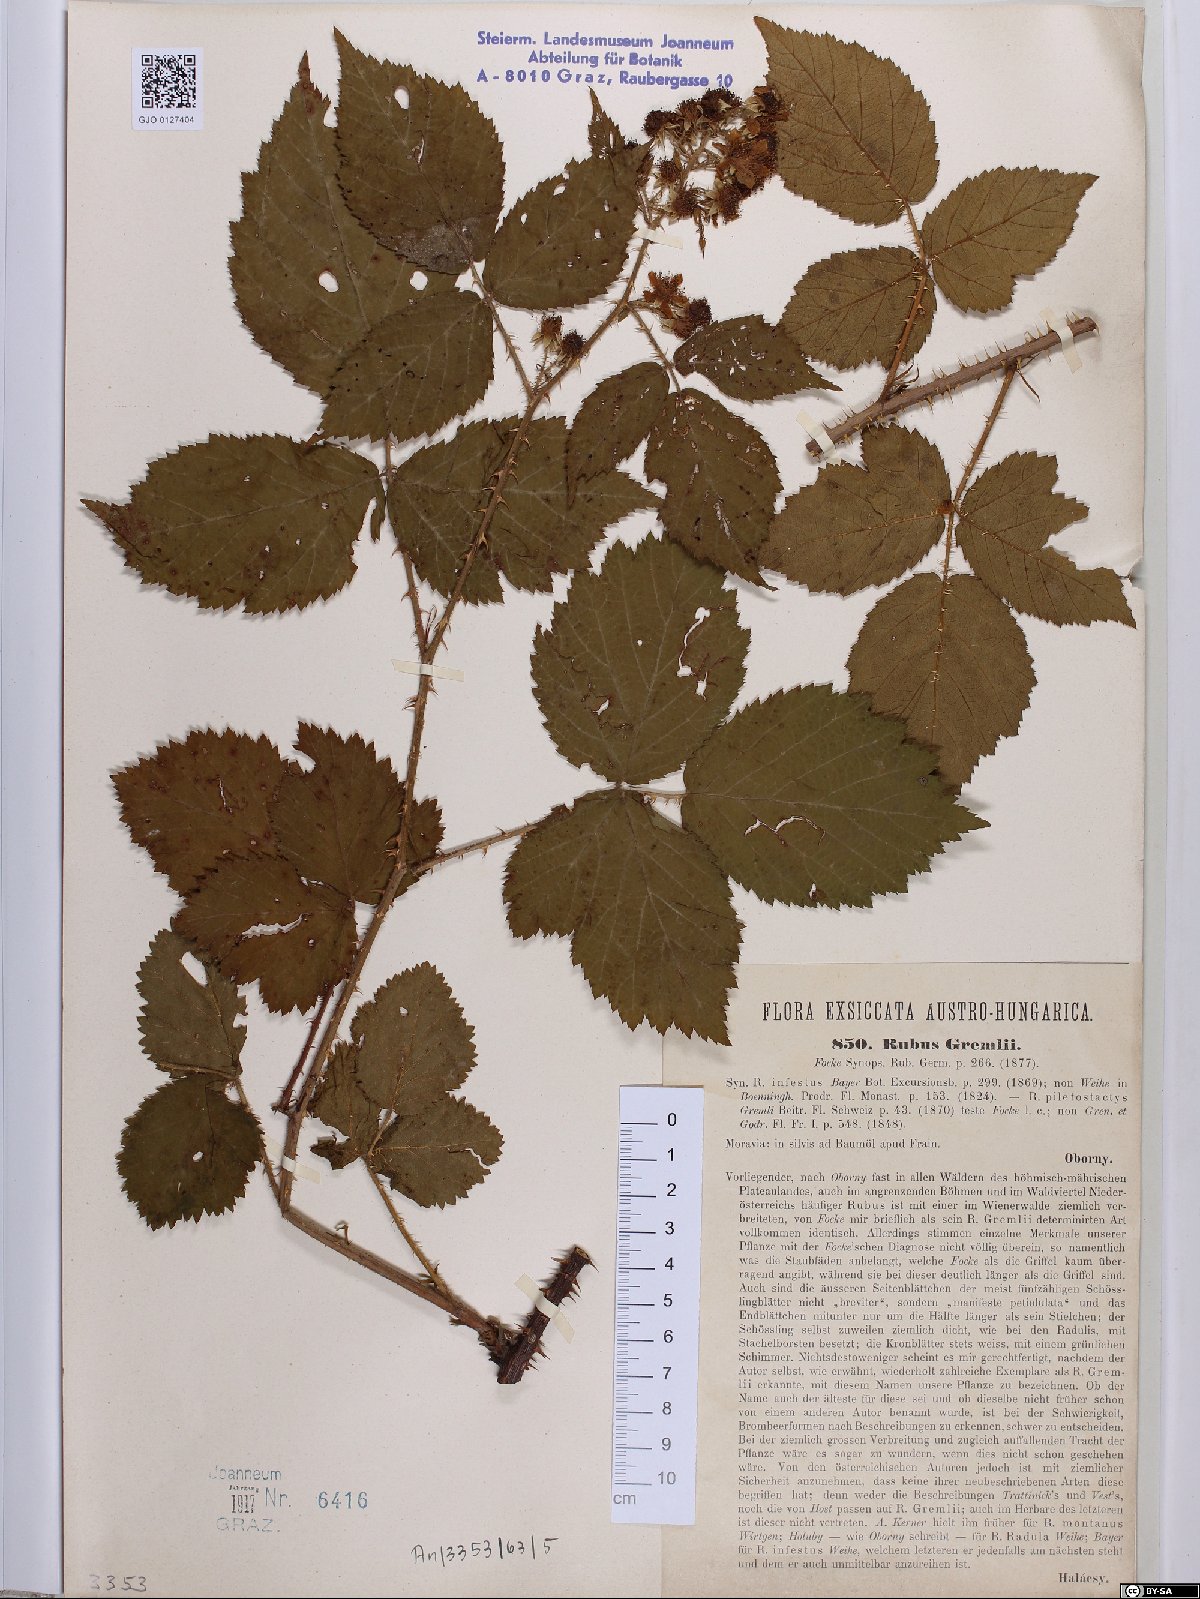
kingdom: Plantae
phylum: Tracheophyta
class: Magnoliopsida
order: Rosales
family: Rosaceae
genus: Rubus
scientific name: Rubus gremlii
